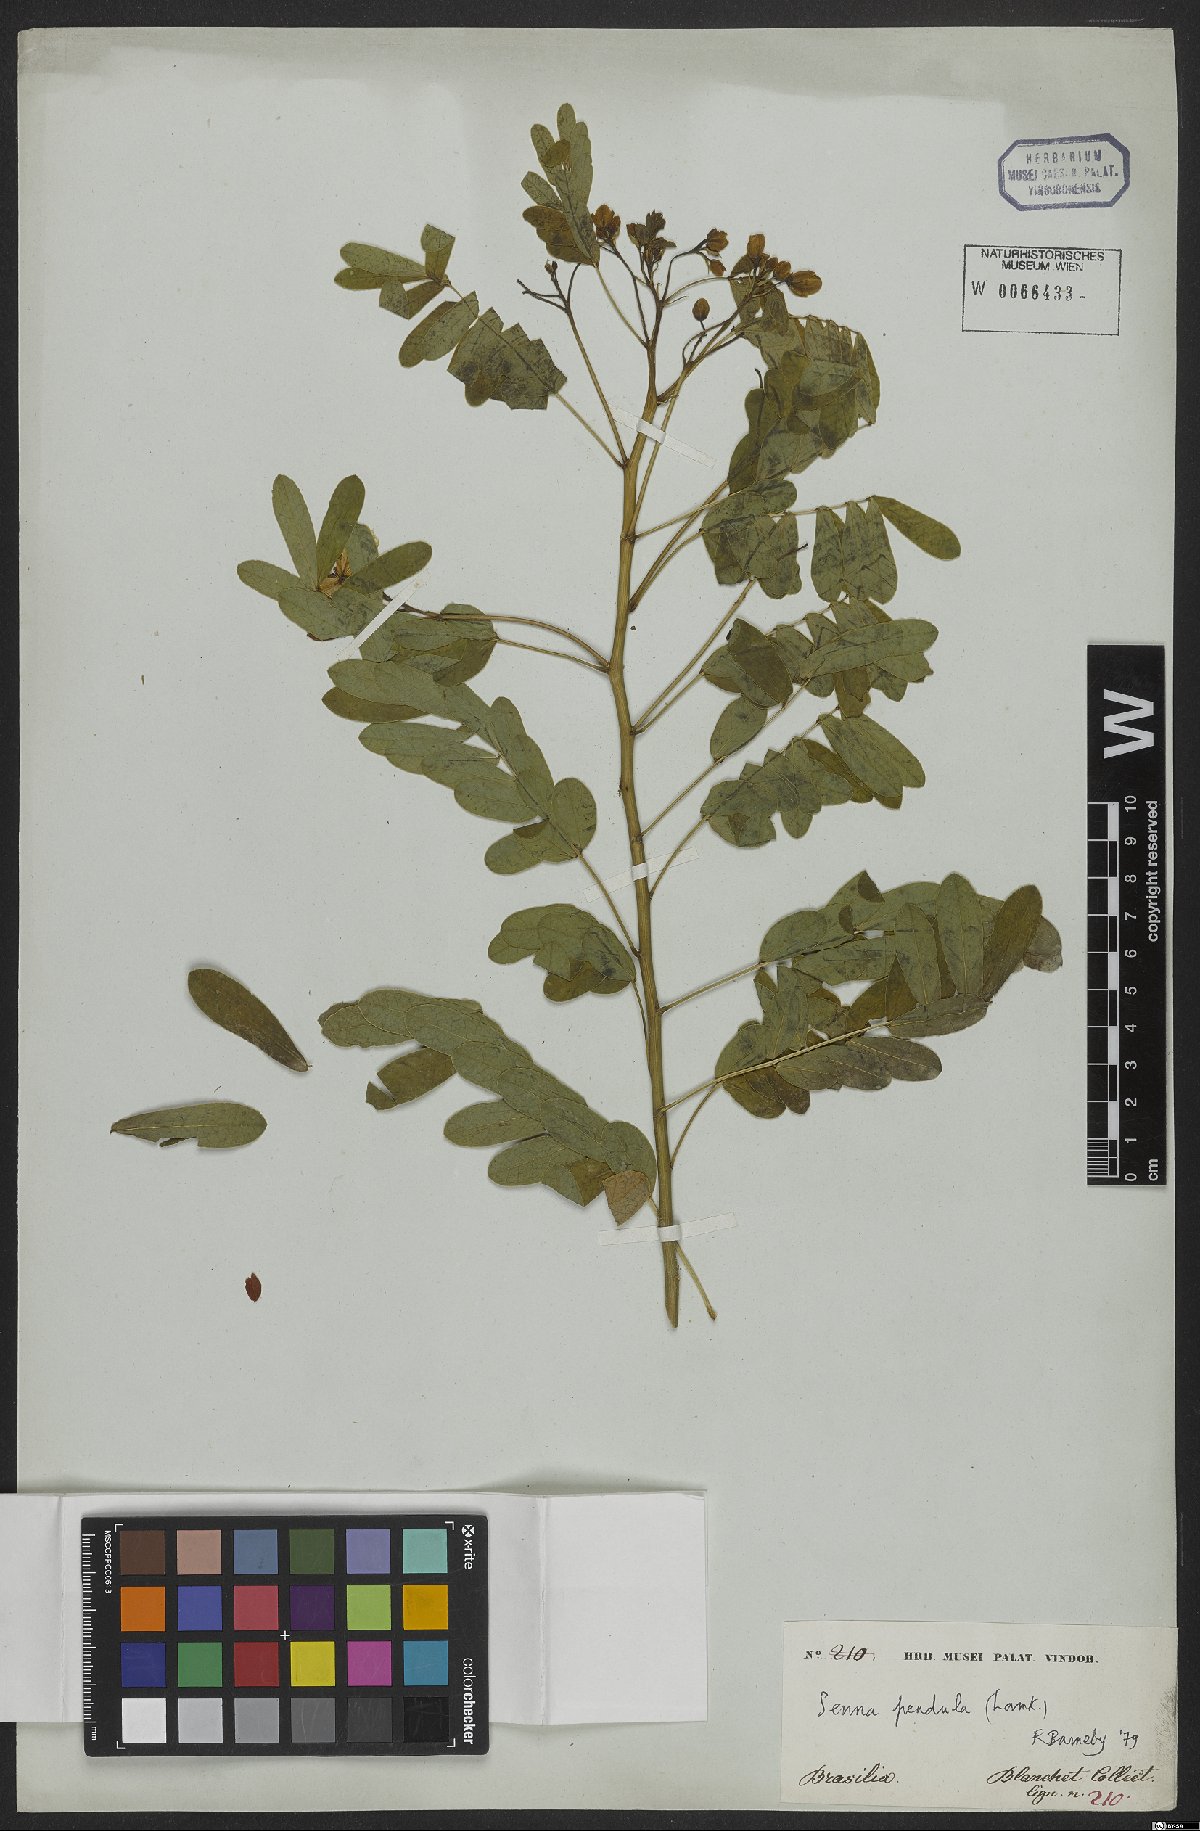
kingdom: Plantae
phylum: Tracheophyta
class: Magnoliopsida
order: Fabales
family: Fabaceae
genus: Senna
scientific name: Senna pendula
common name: Easter cassia
